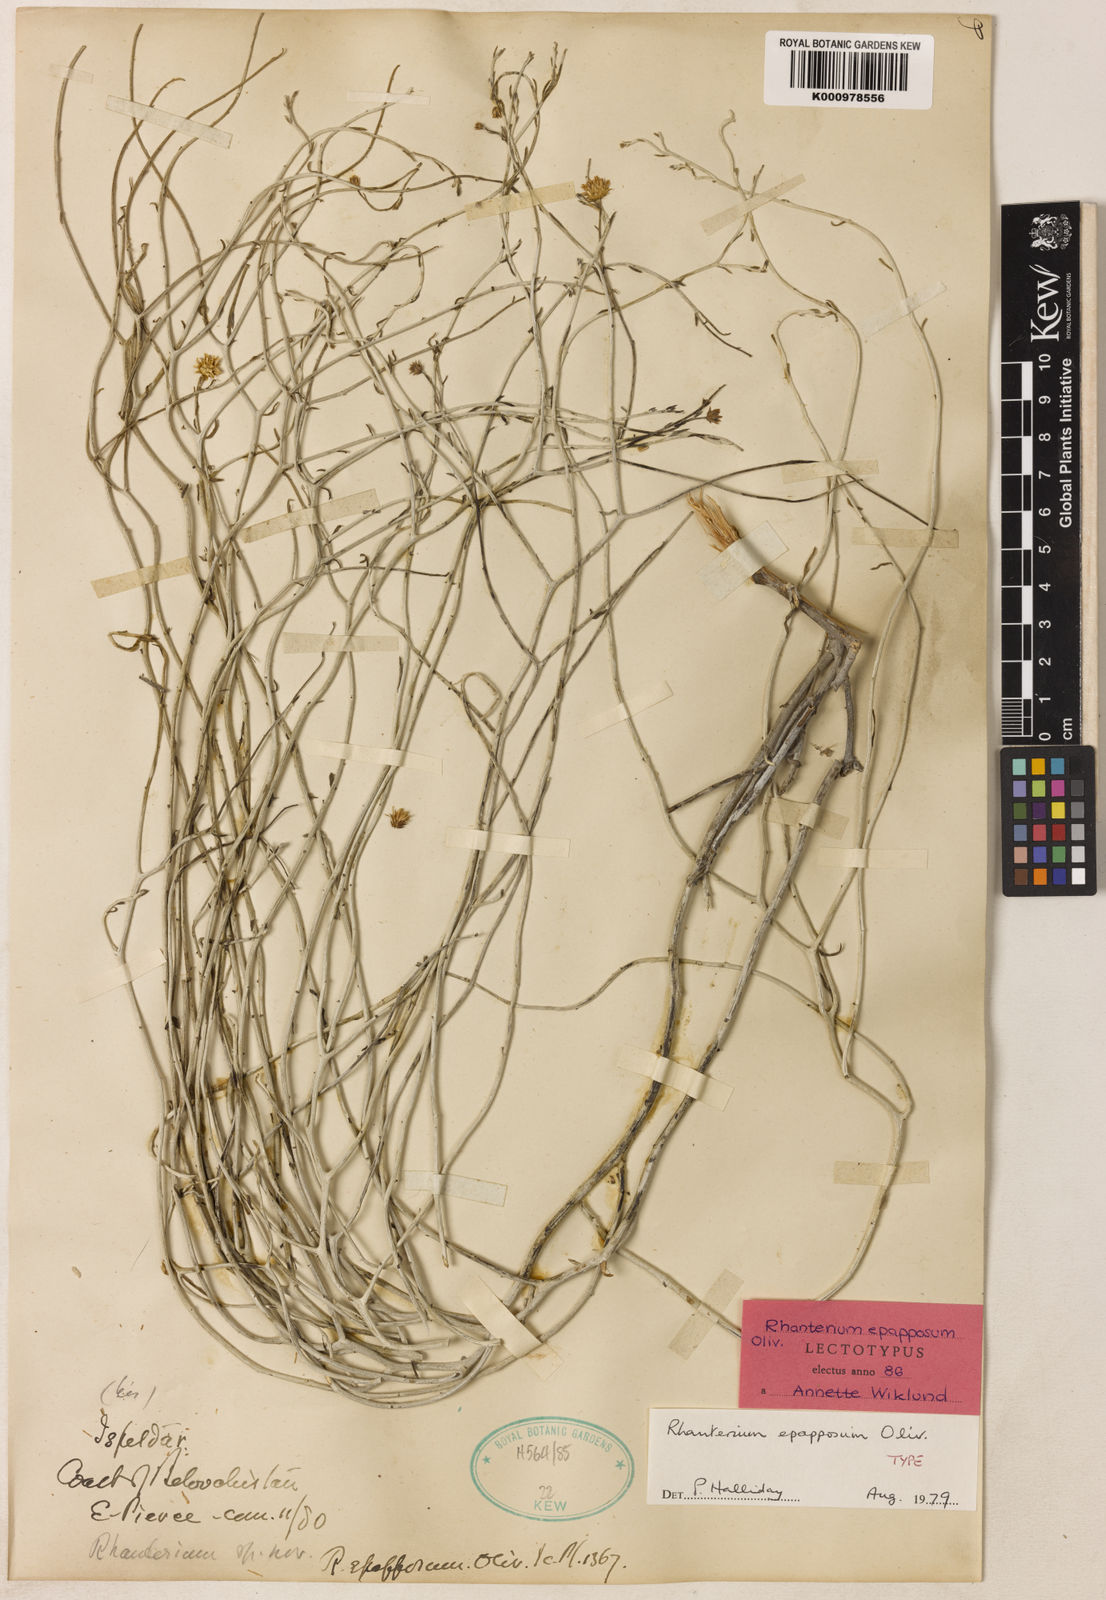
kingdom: Plantae
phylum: Tracheophyta
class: Magnoliopsida
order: Asterales
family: Asteraceae
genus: Rhanterium
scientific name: Rhanterium epapposum
